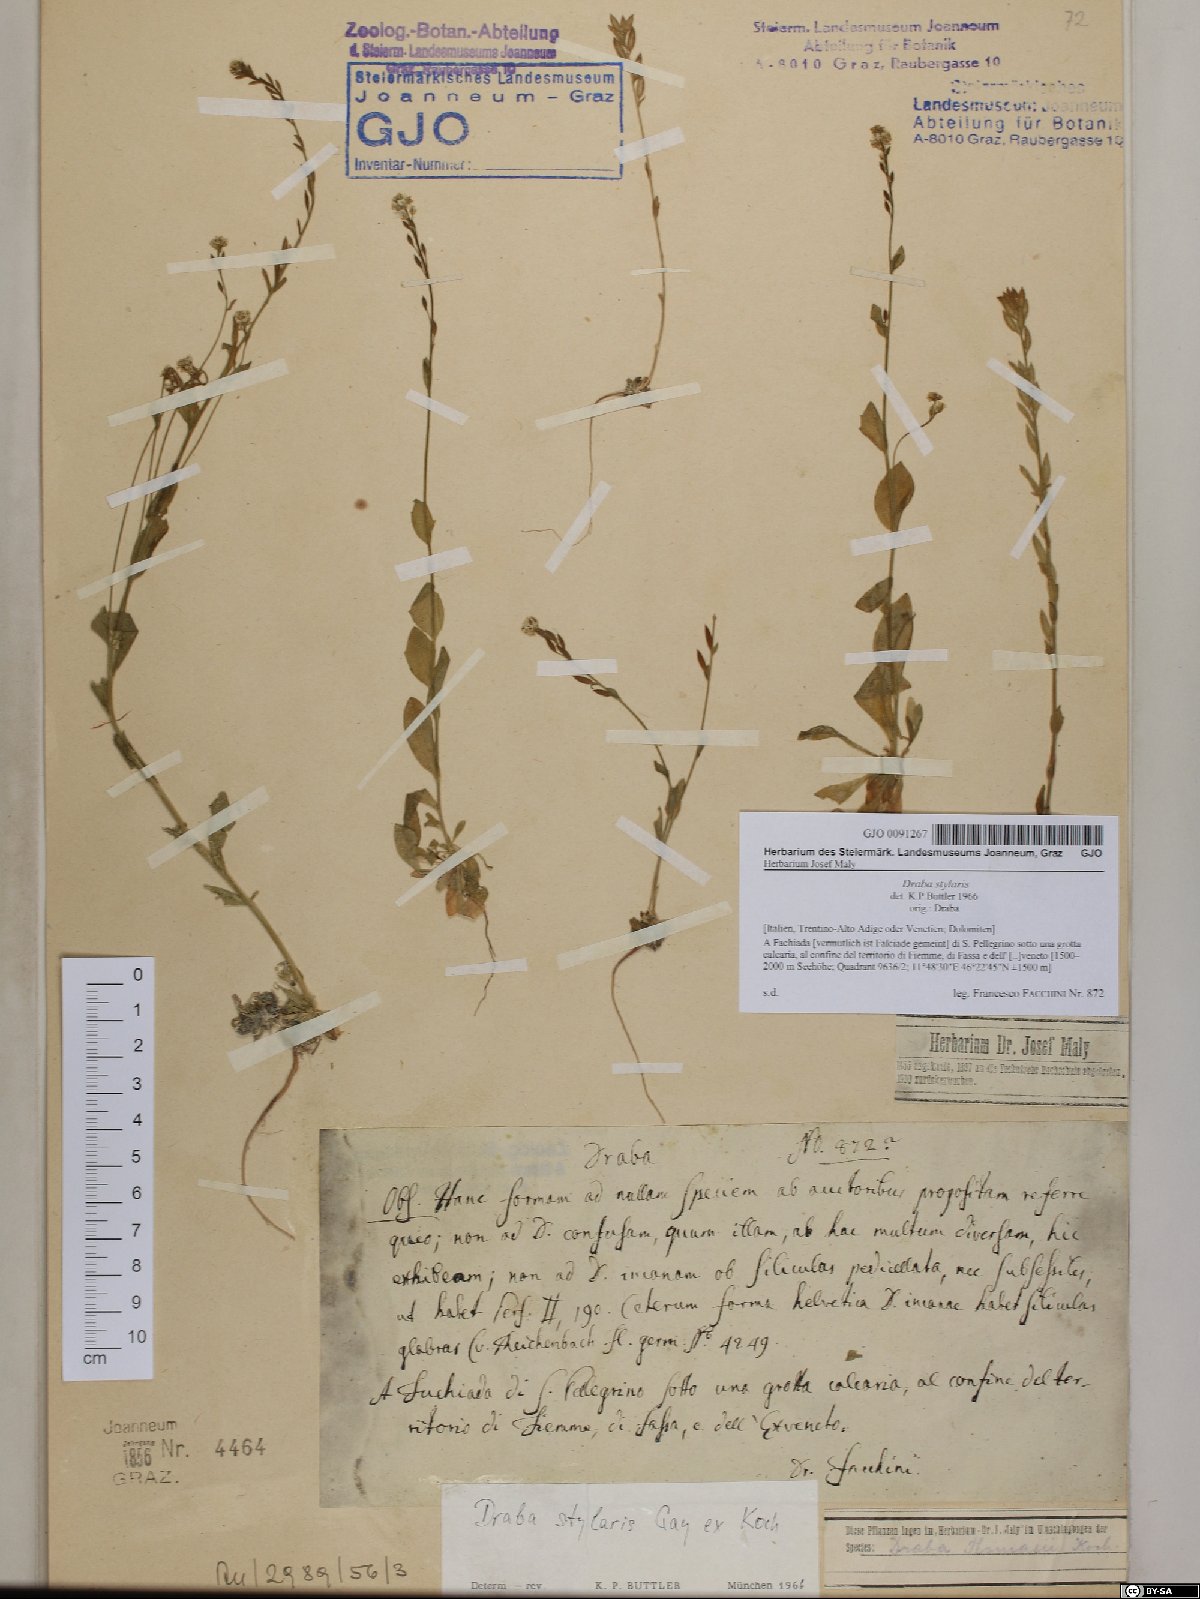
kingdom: Plantae
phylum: Tracheophyta
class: Magnoliopsida
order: Brassicales
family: Brassicaceae
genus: Draba
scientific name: Draba thomasii
